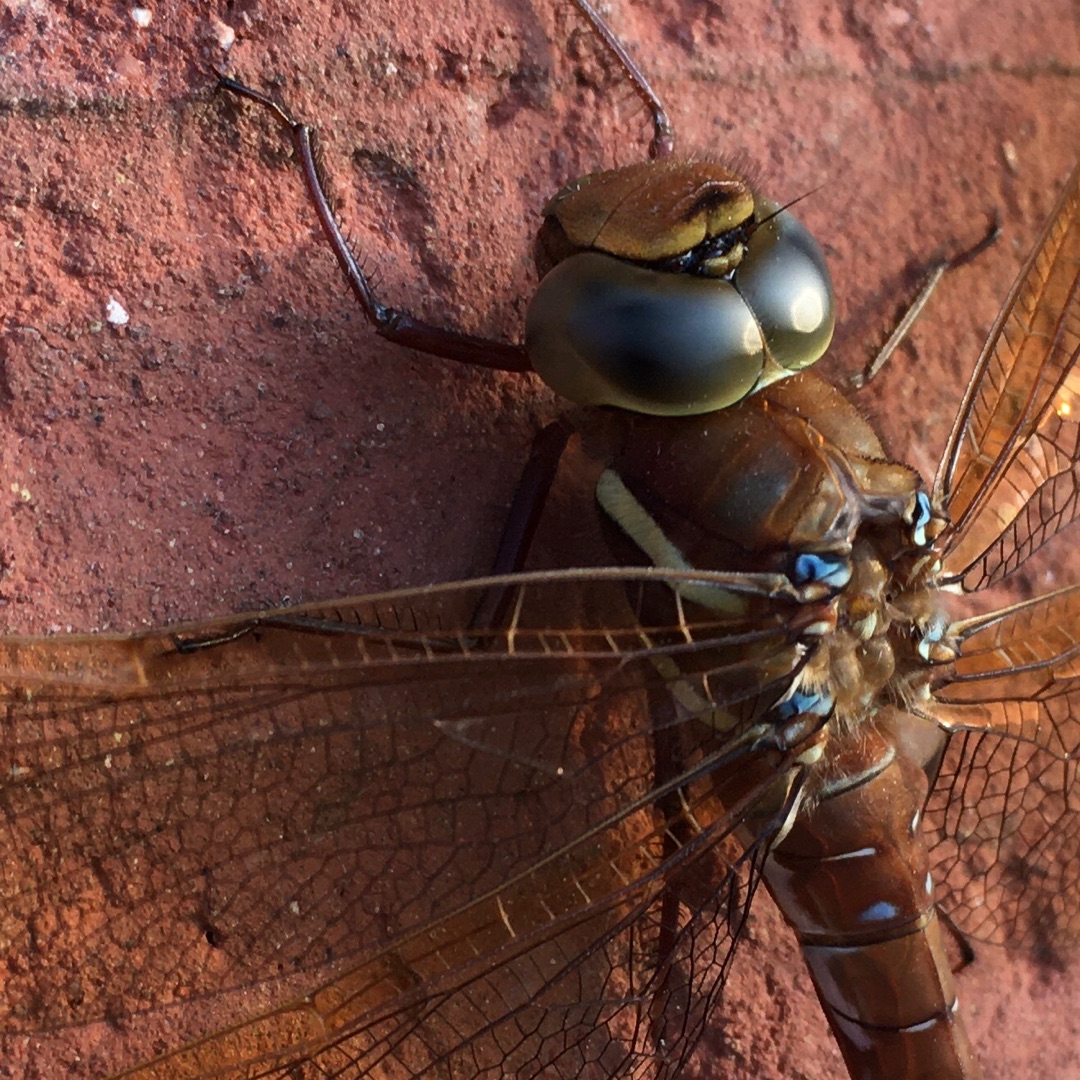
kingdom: Animalia
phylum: Arthropoda
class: Insecta
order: Odonata
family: Aeshnidae
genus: Aeshna
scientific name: Aeshna grandis
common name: Brun mosaikguldsmed
